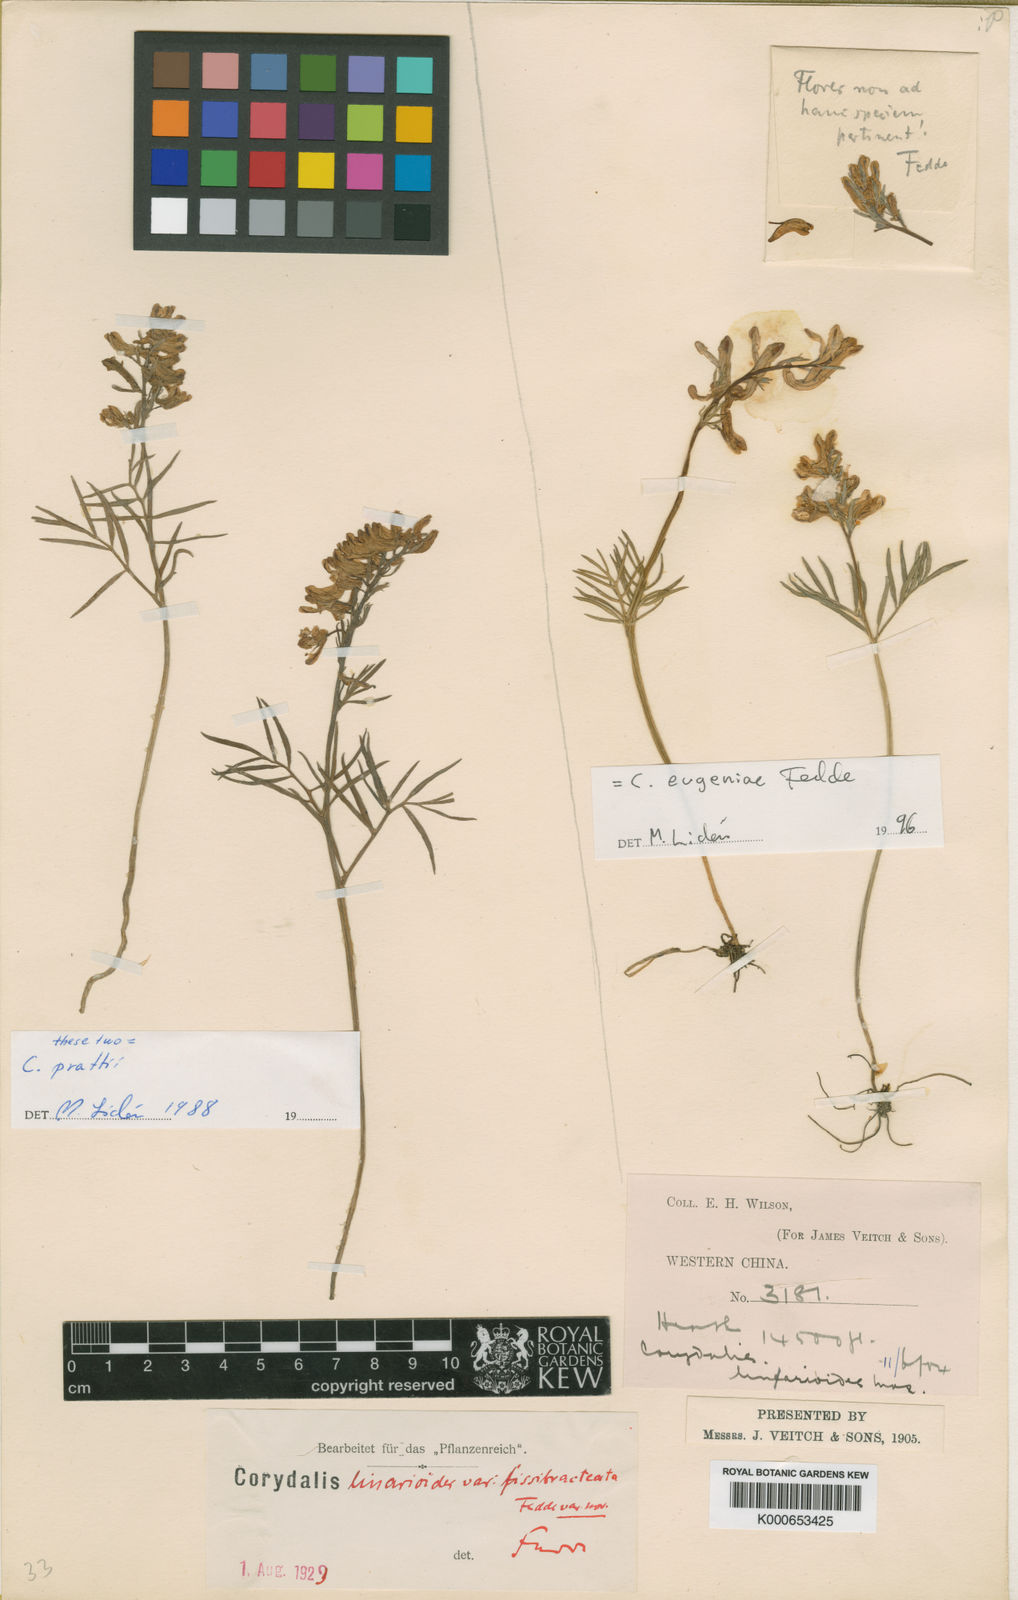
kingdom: Plantae
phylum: Tracheophyta
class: Magnoliopsida
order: Ranunculales
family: Papaveraceae
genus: Corydalis
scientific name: Corydalis linarioides
